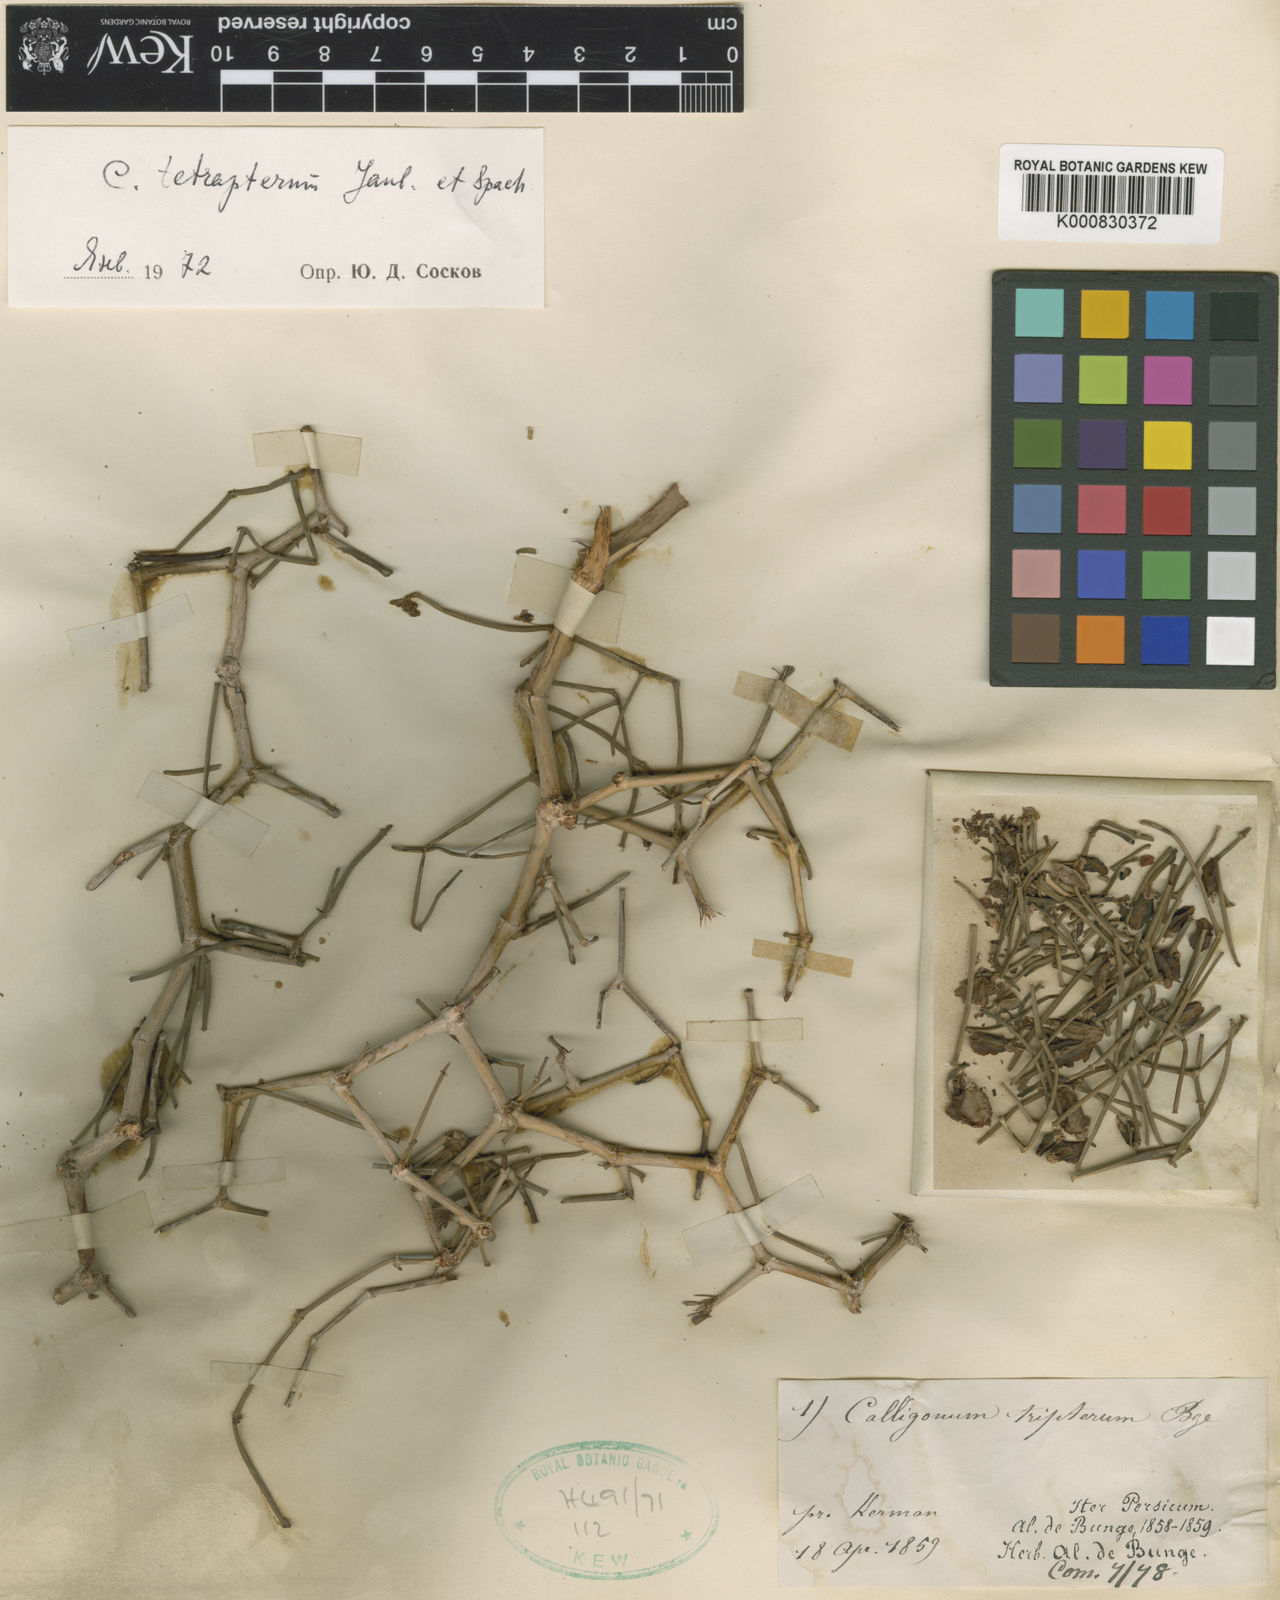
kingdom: Plantae
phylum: Tracheophyta
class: Magnoliopsida
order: Caryophyllales
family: Polygonaceae
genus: Calligonum
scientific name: Calligonum tetrapterum
